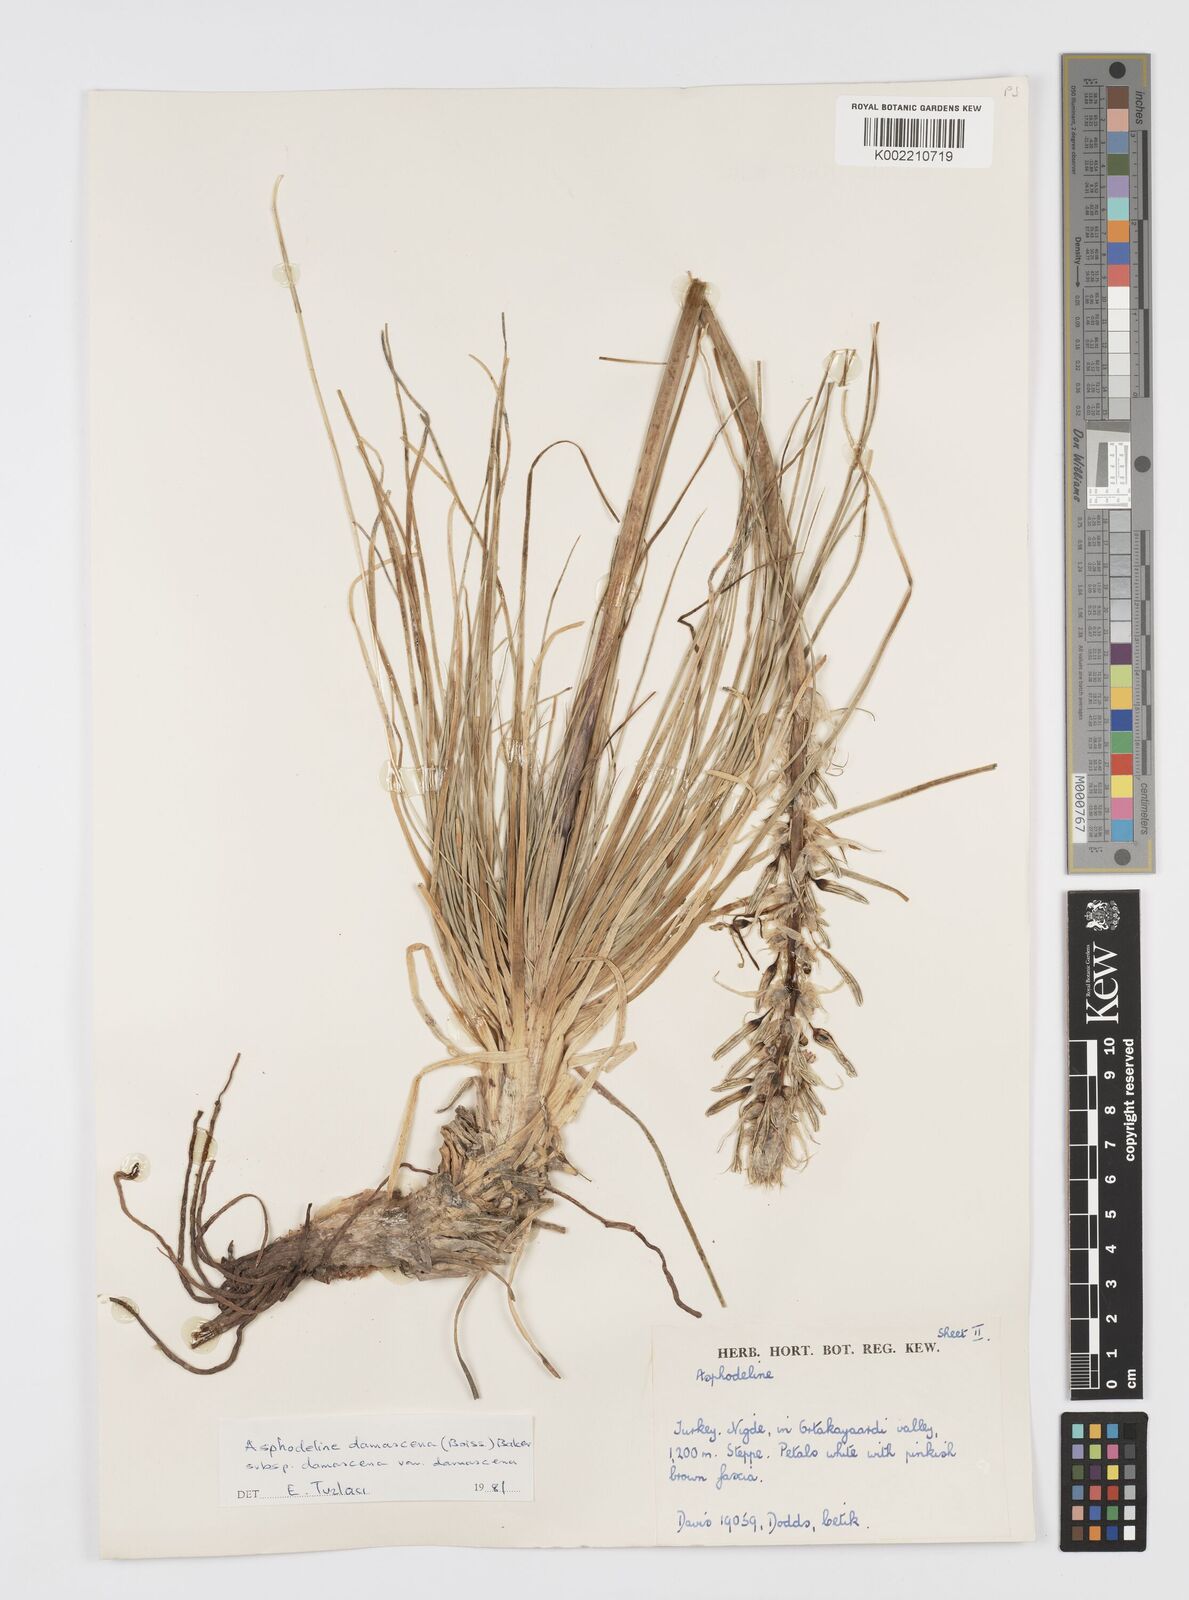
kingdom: Plantae
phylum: Tracheophyta
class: Liliopsida
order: Asparagales
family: Asphodelaceae
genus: Asphodeline
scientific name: Asphodeline damascena
